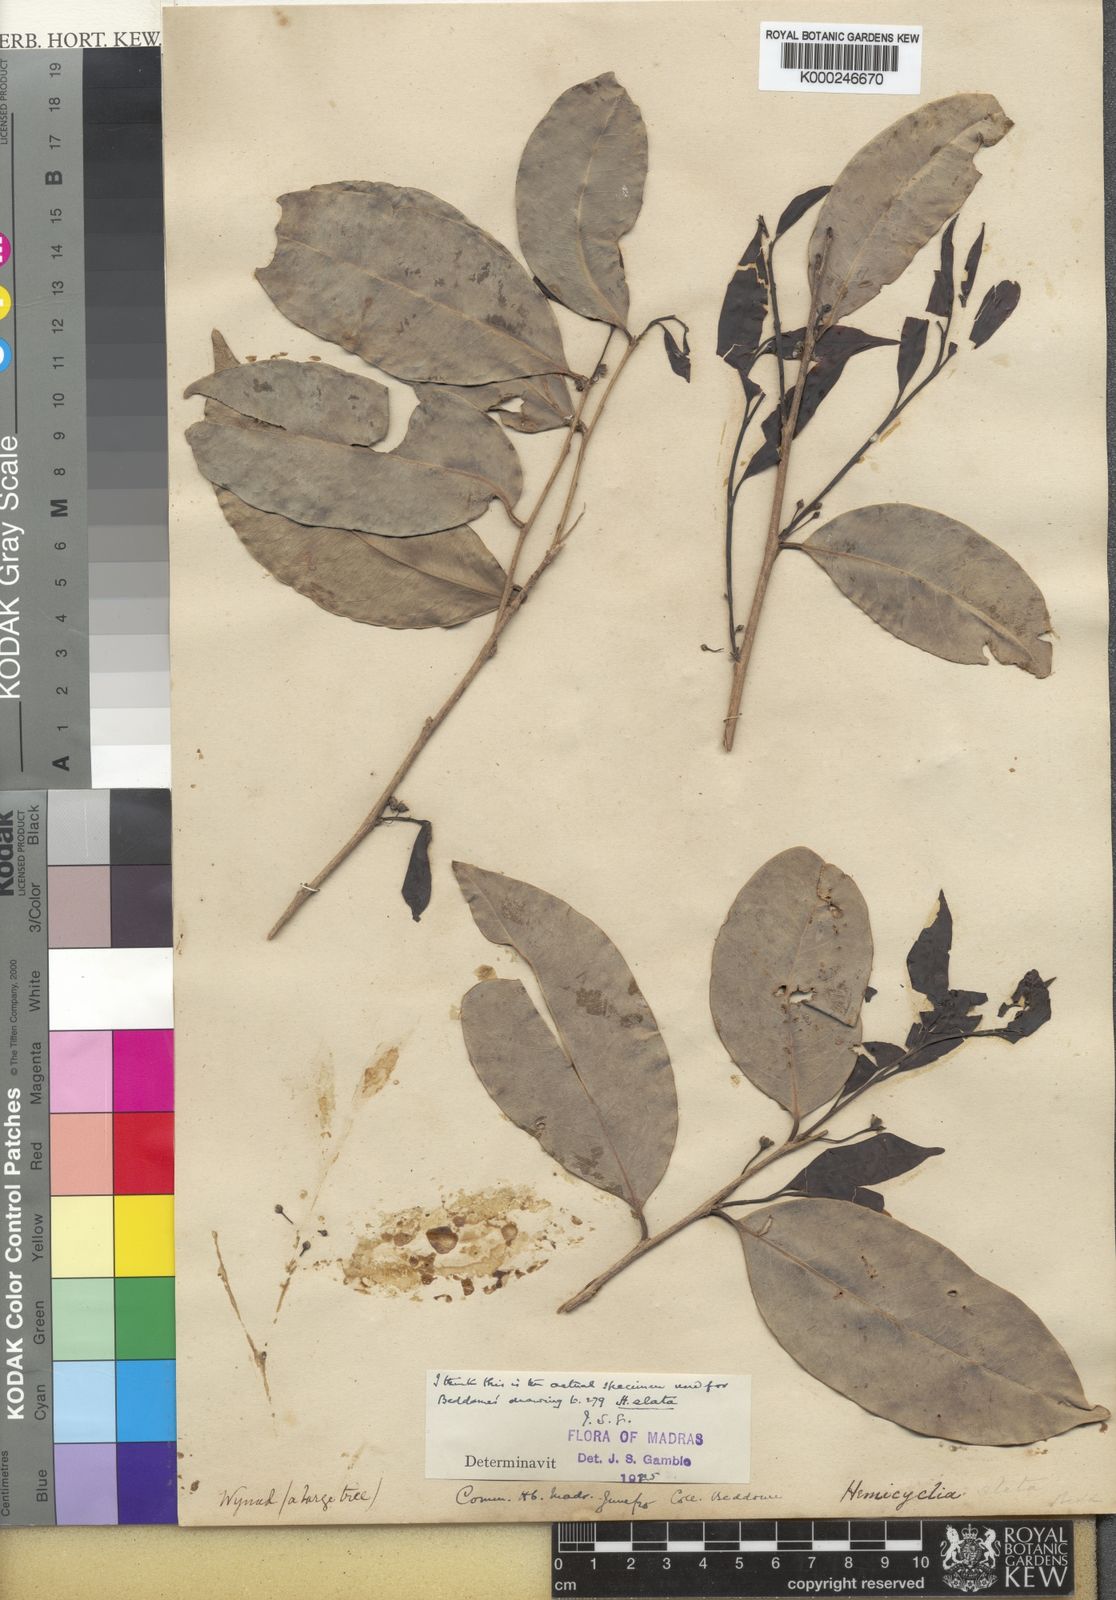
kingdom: Plantae
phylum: Tracheophyta
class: Magnoliopsida
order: Malpighiales
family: Putranjivaceae
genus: Drypetes
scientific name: Drypetes venusta
